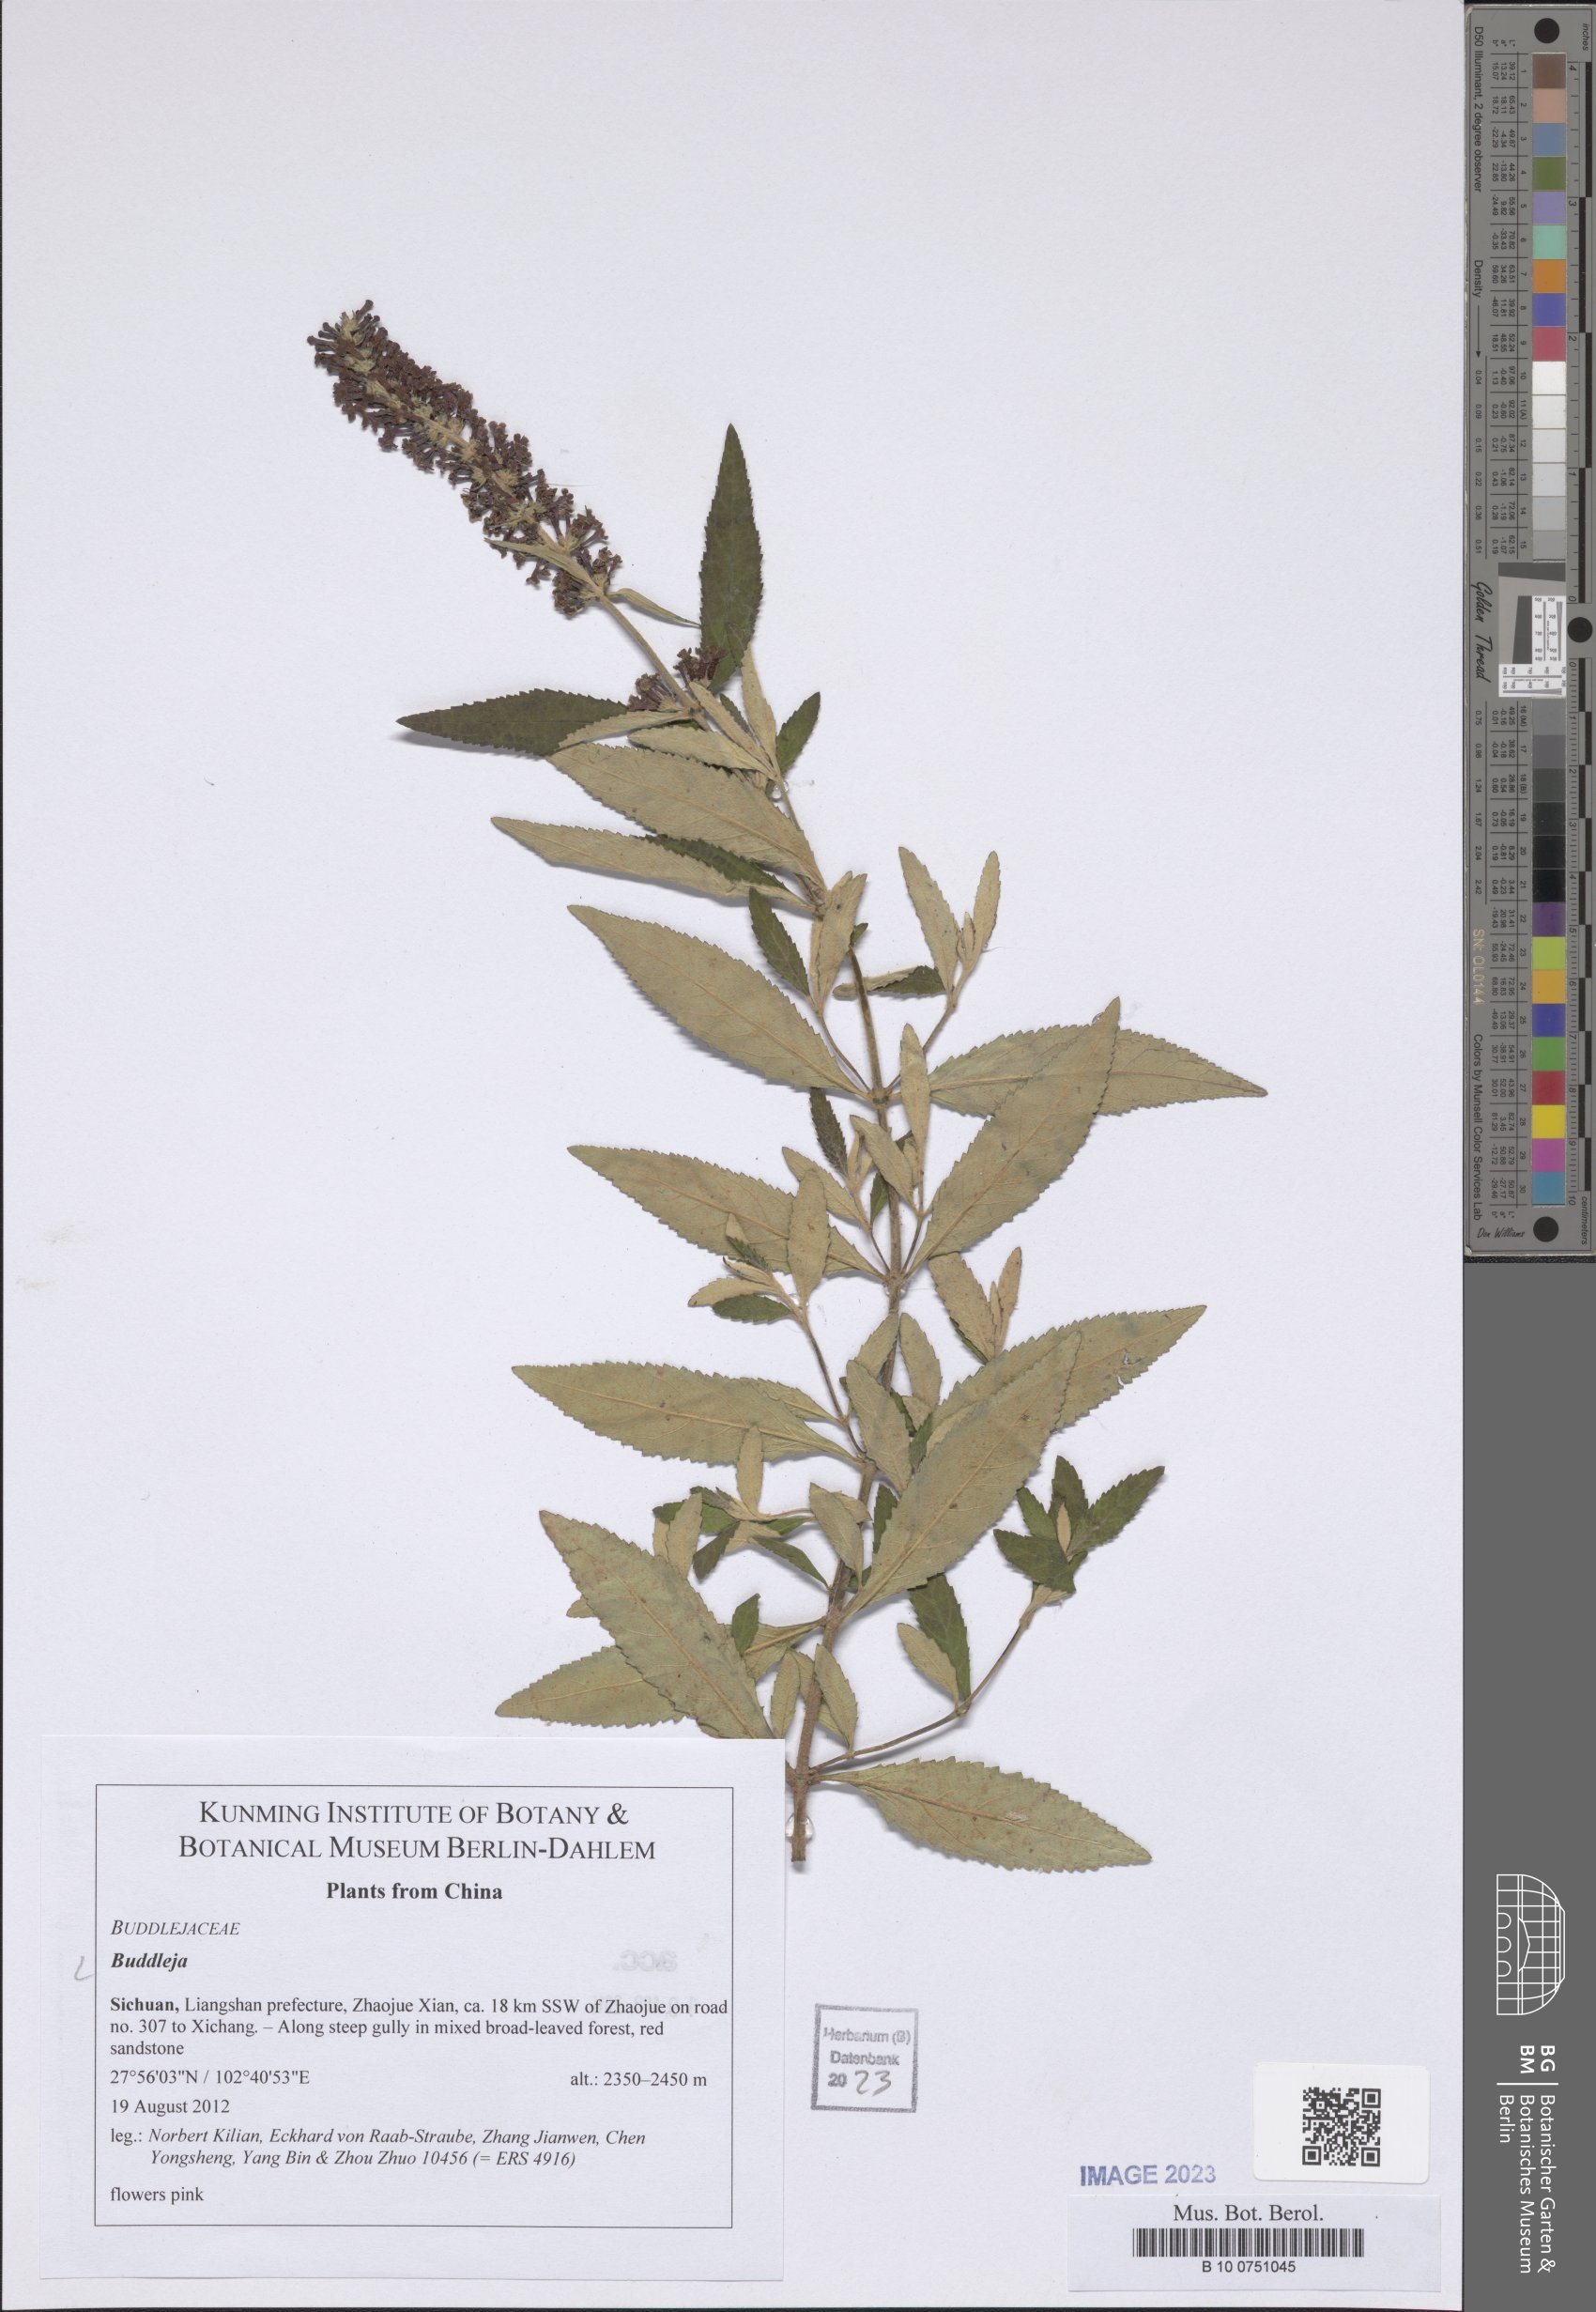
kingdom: Plantae
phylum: Tracheophyta
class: Magnoliopsida
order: Lamiales
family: Scrophulariaceae
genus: Buddleja
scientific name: Buddleja
